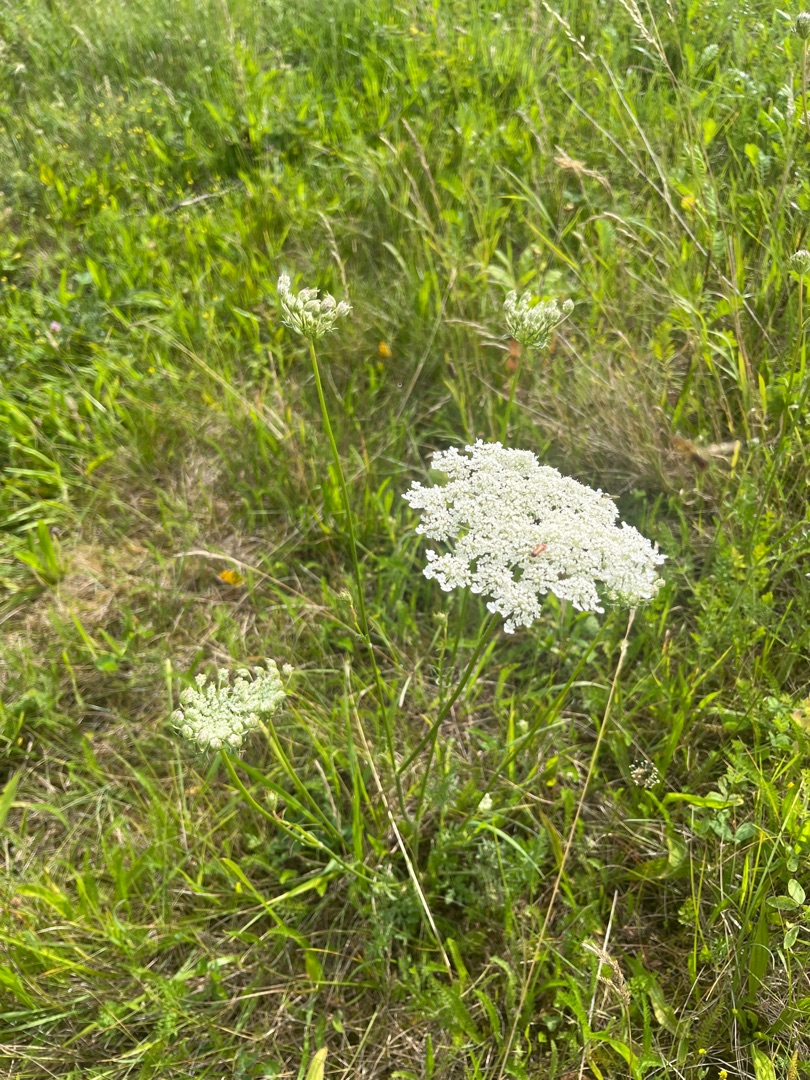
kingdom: Plantae
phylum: Tracheophyta
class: Magnoliopsida
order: Apiales
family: Apiaceae
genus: Daucus
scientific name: Daucus carota
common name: Gulerod
